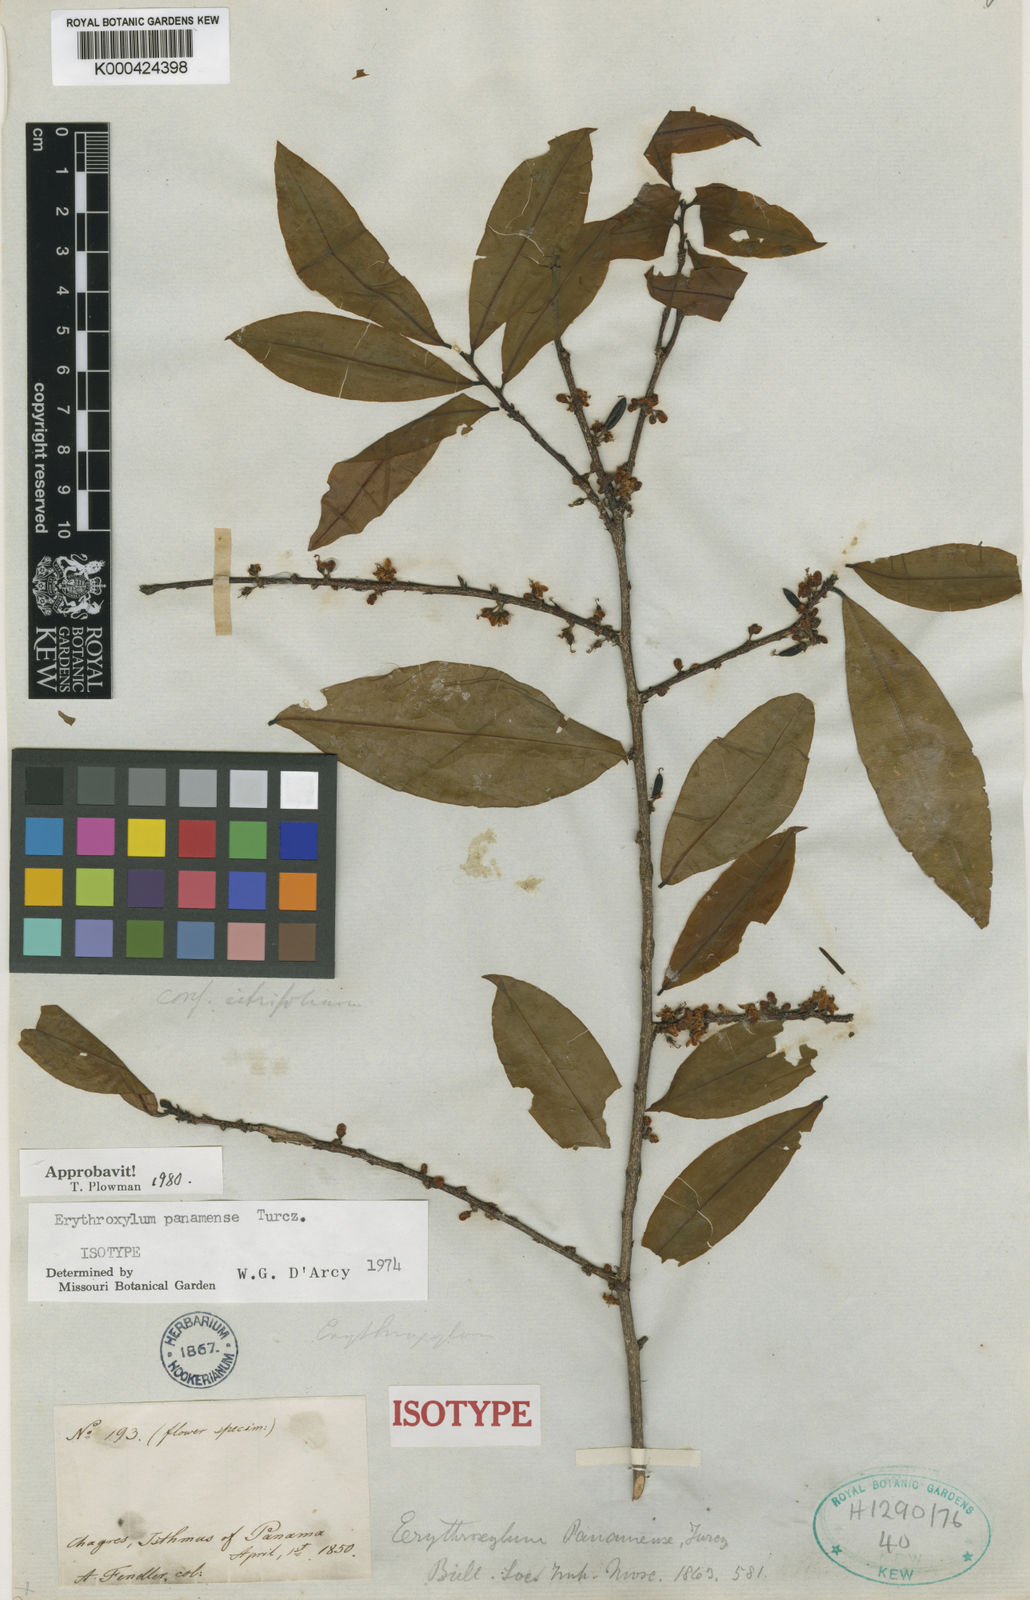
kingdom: Plantae
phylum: Tracheophyta
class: Magnoliopsida
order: Malpighiales
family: Erythroxylaceae
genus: Erythroxylum
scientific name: Erythroxylum panamense
